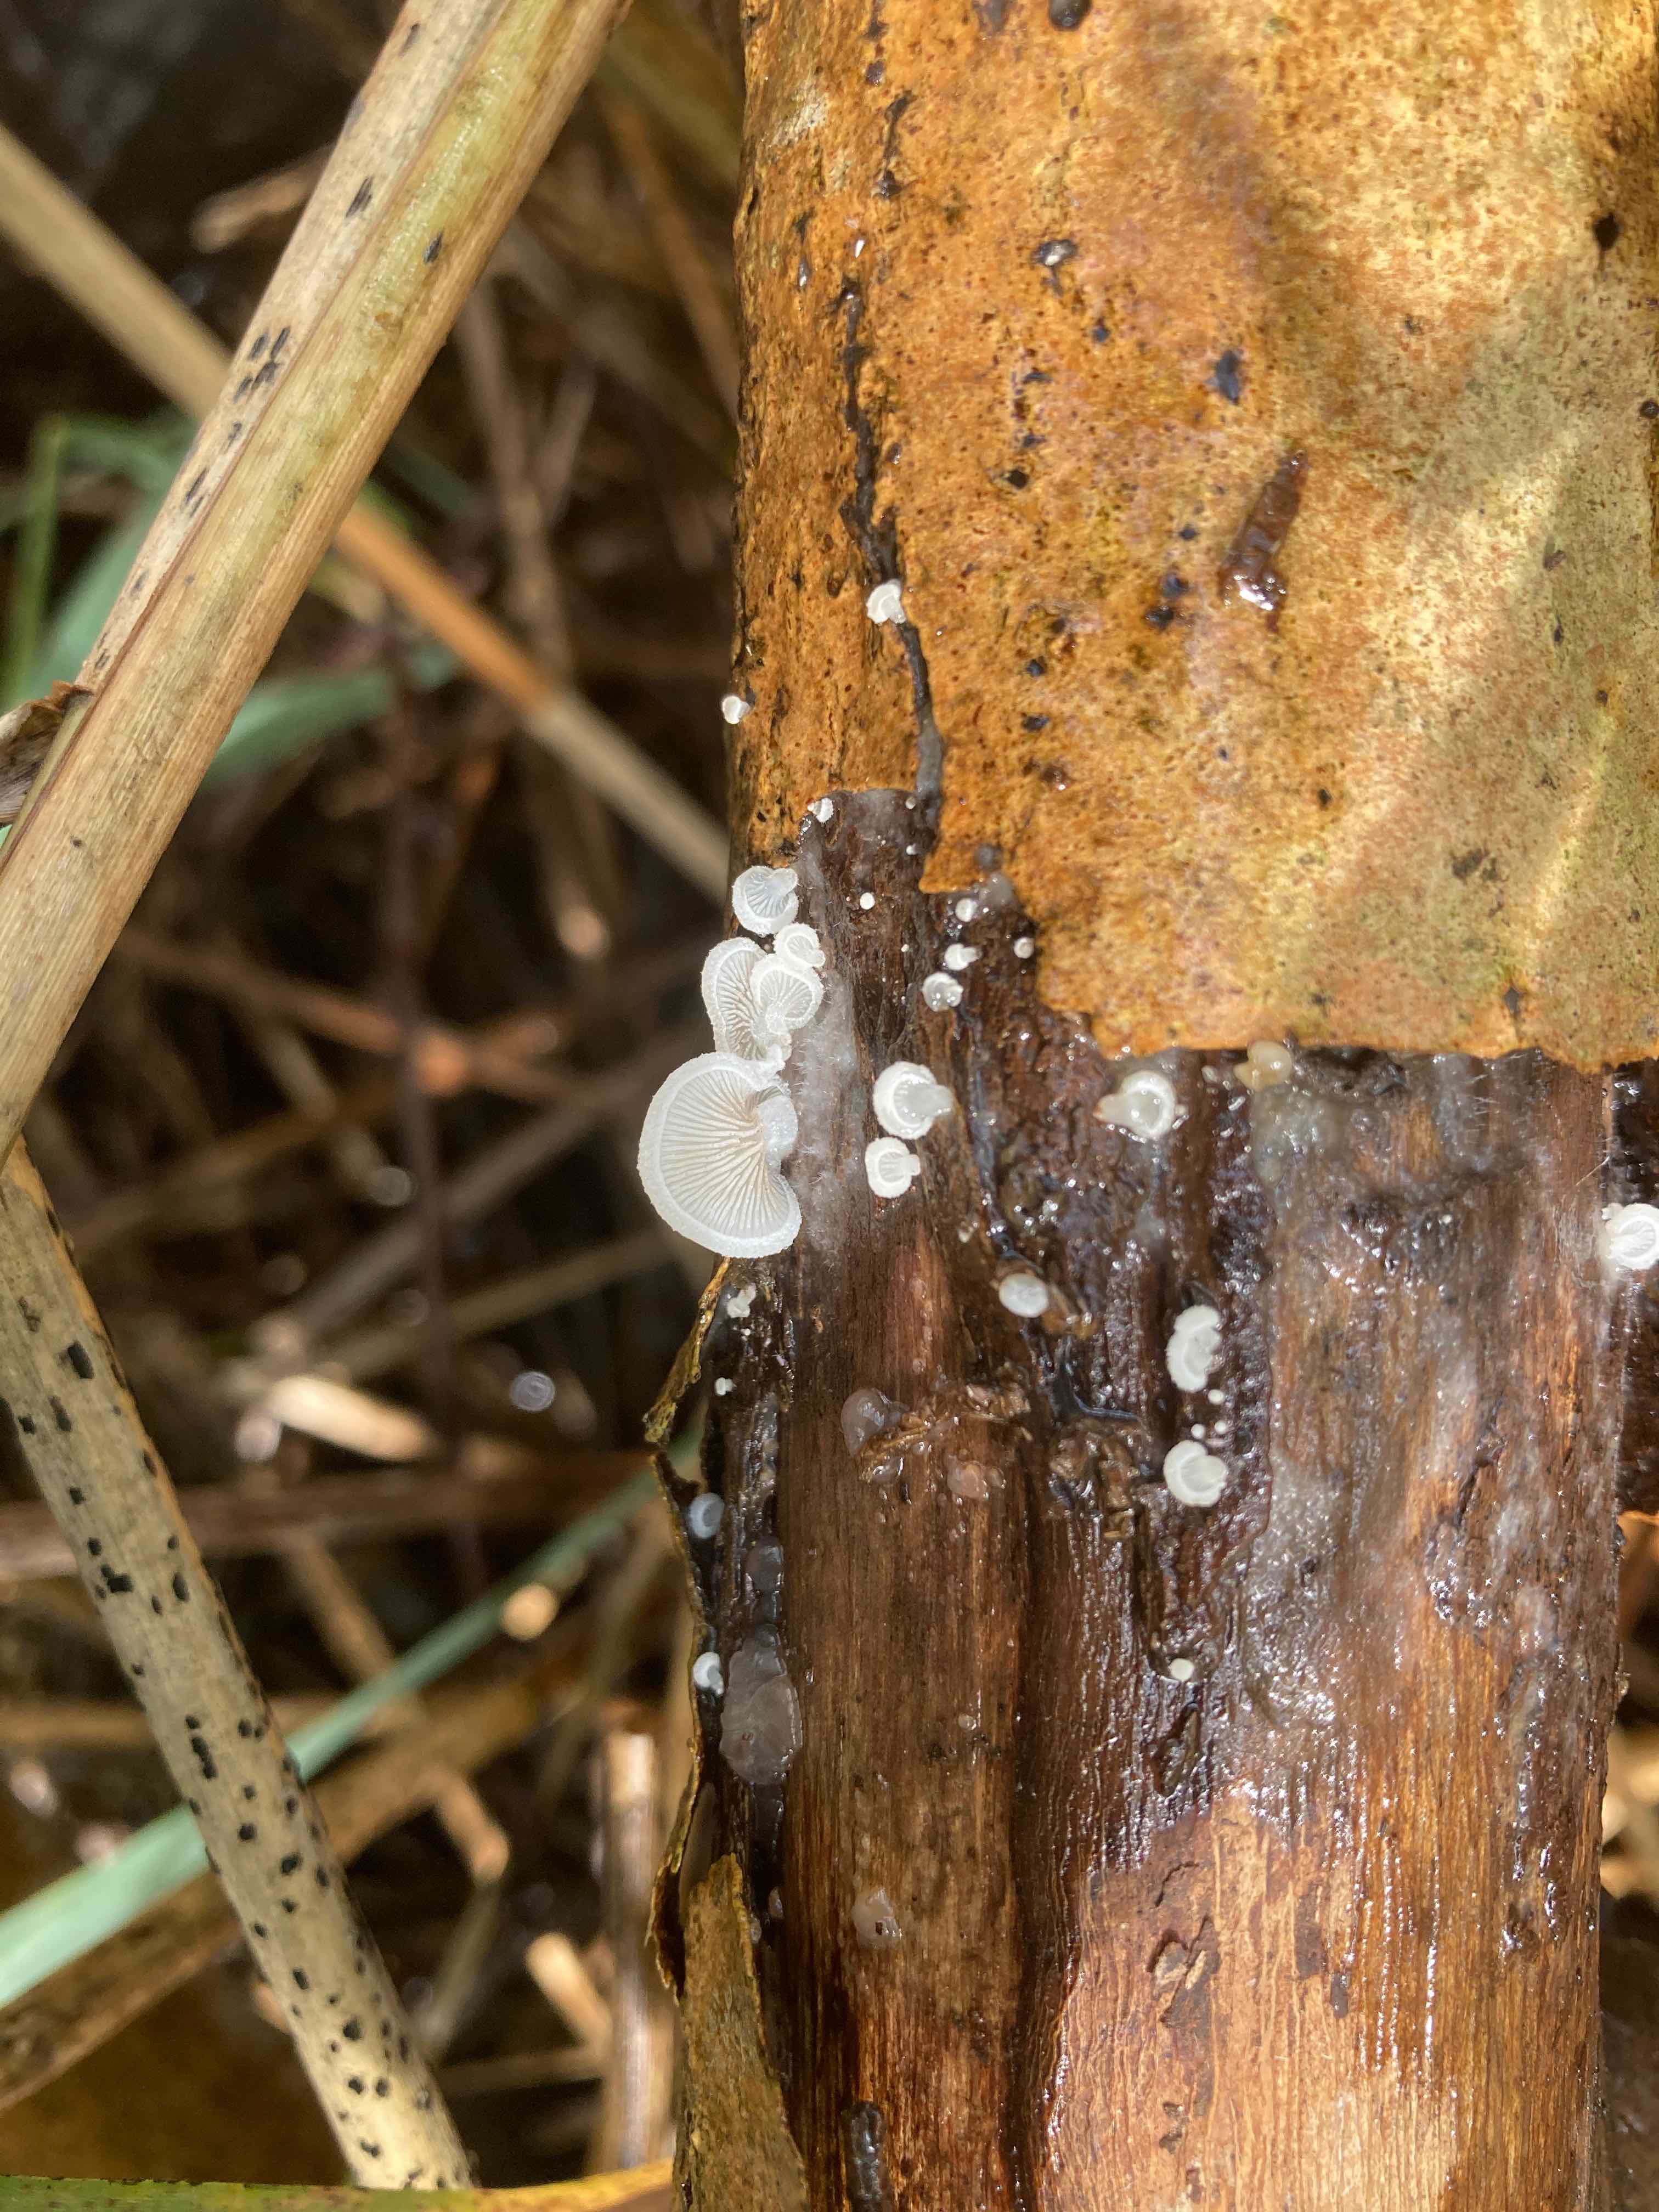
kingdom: Fungi
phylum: Basidiomycota
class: Agaricomycetes
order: Agaricales
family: Crepidotaceae
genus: Crepidotus
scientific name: Crepidotus mollis
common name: blød muslingesvamp
